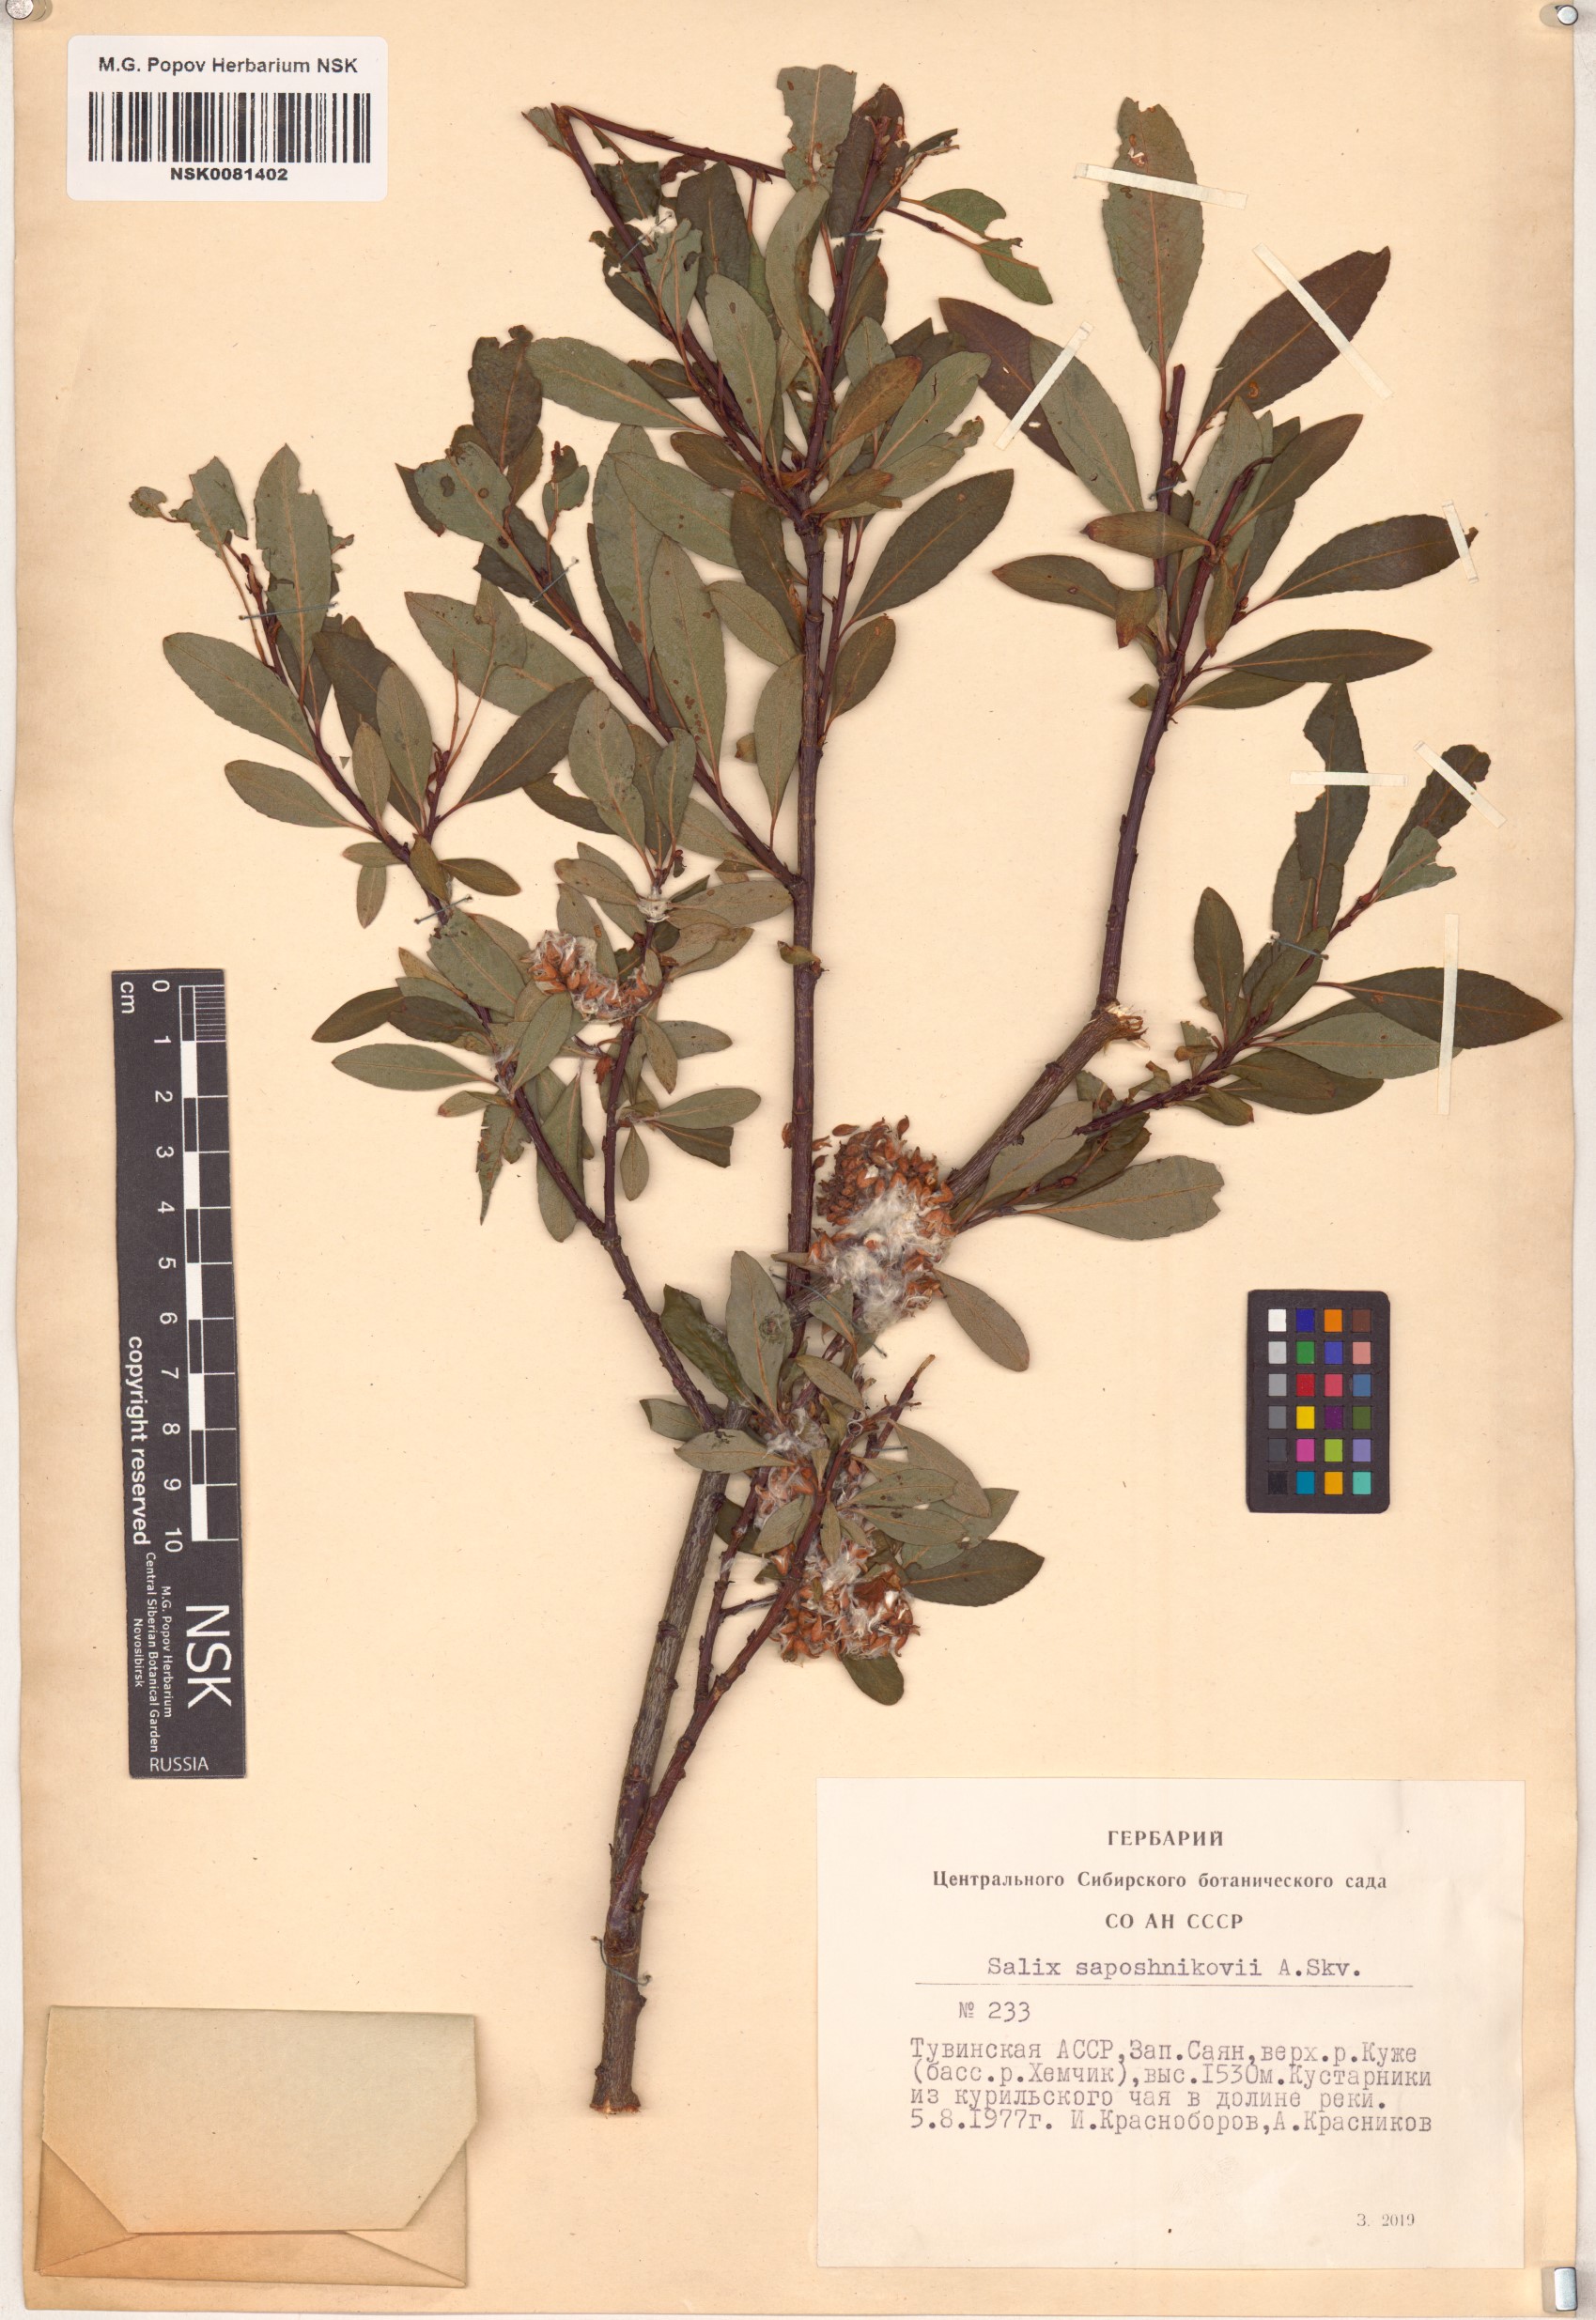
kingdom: Plantae
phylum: Tracheophyta
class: Magnoliopsida
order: Malpighiales
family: Salicaceae
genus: Salix
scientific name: Salix saposhnikovii
